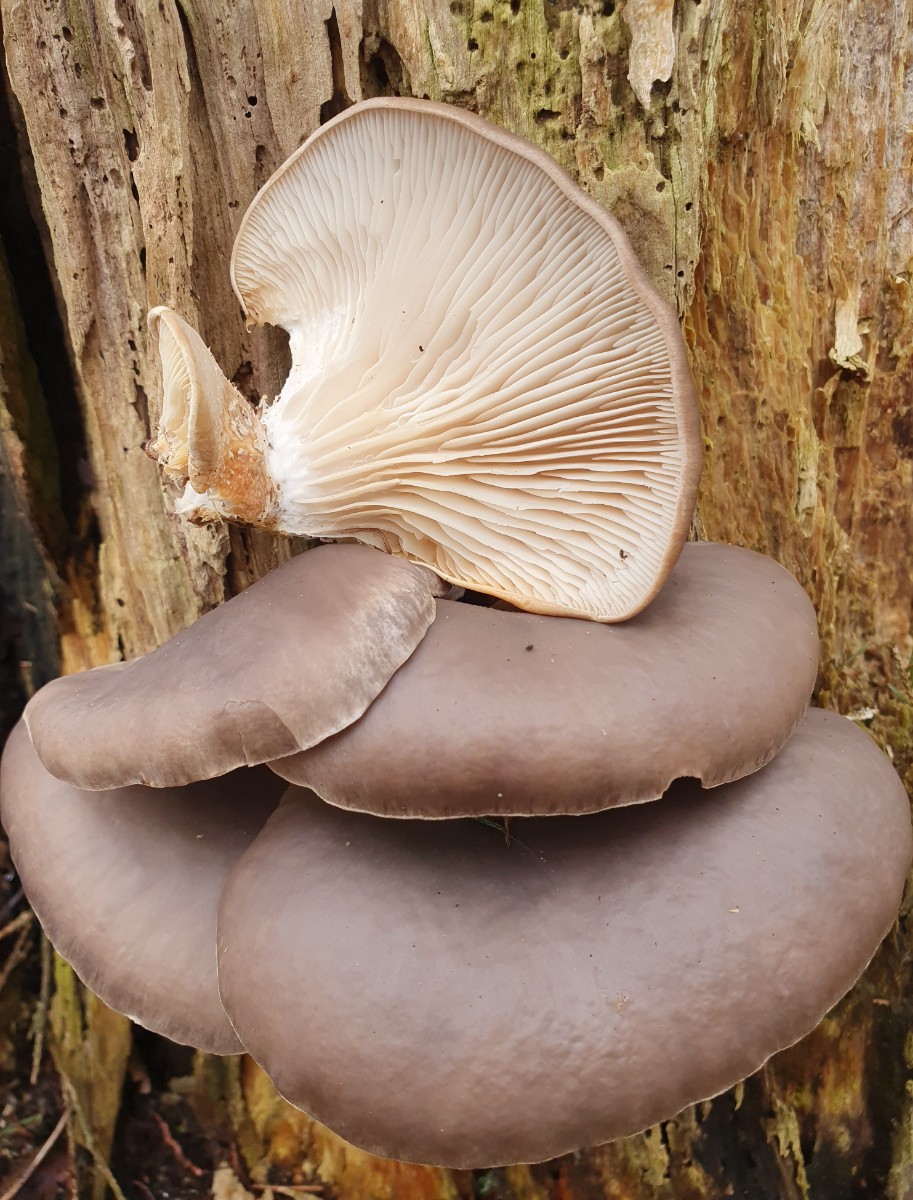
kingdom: Fungi
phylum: Basidiomycota
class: Agaricomycetes
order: Agaricales
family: Pleurotaceae
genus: Pleurotus
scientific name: Pleurotus ostreatus
